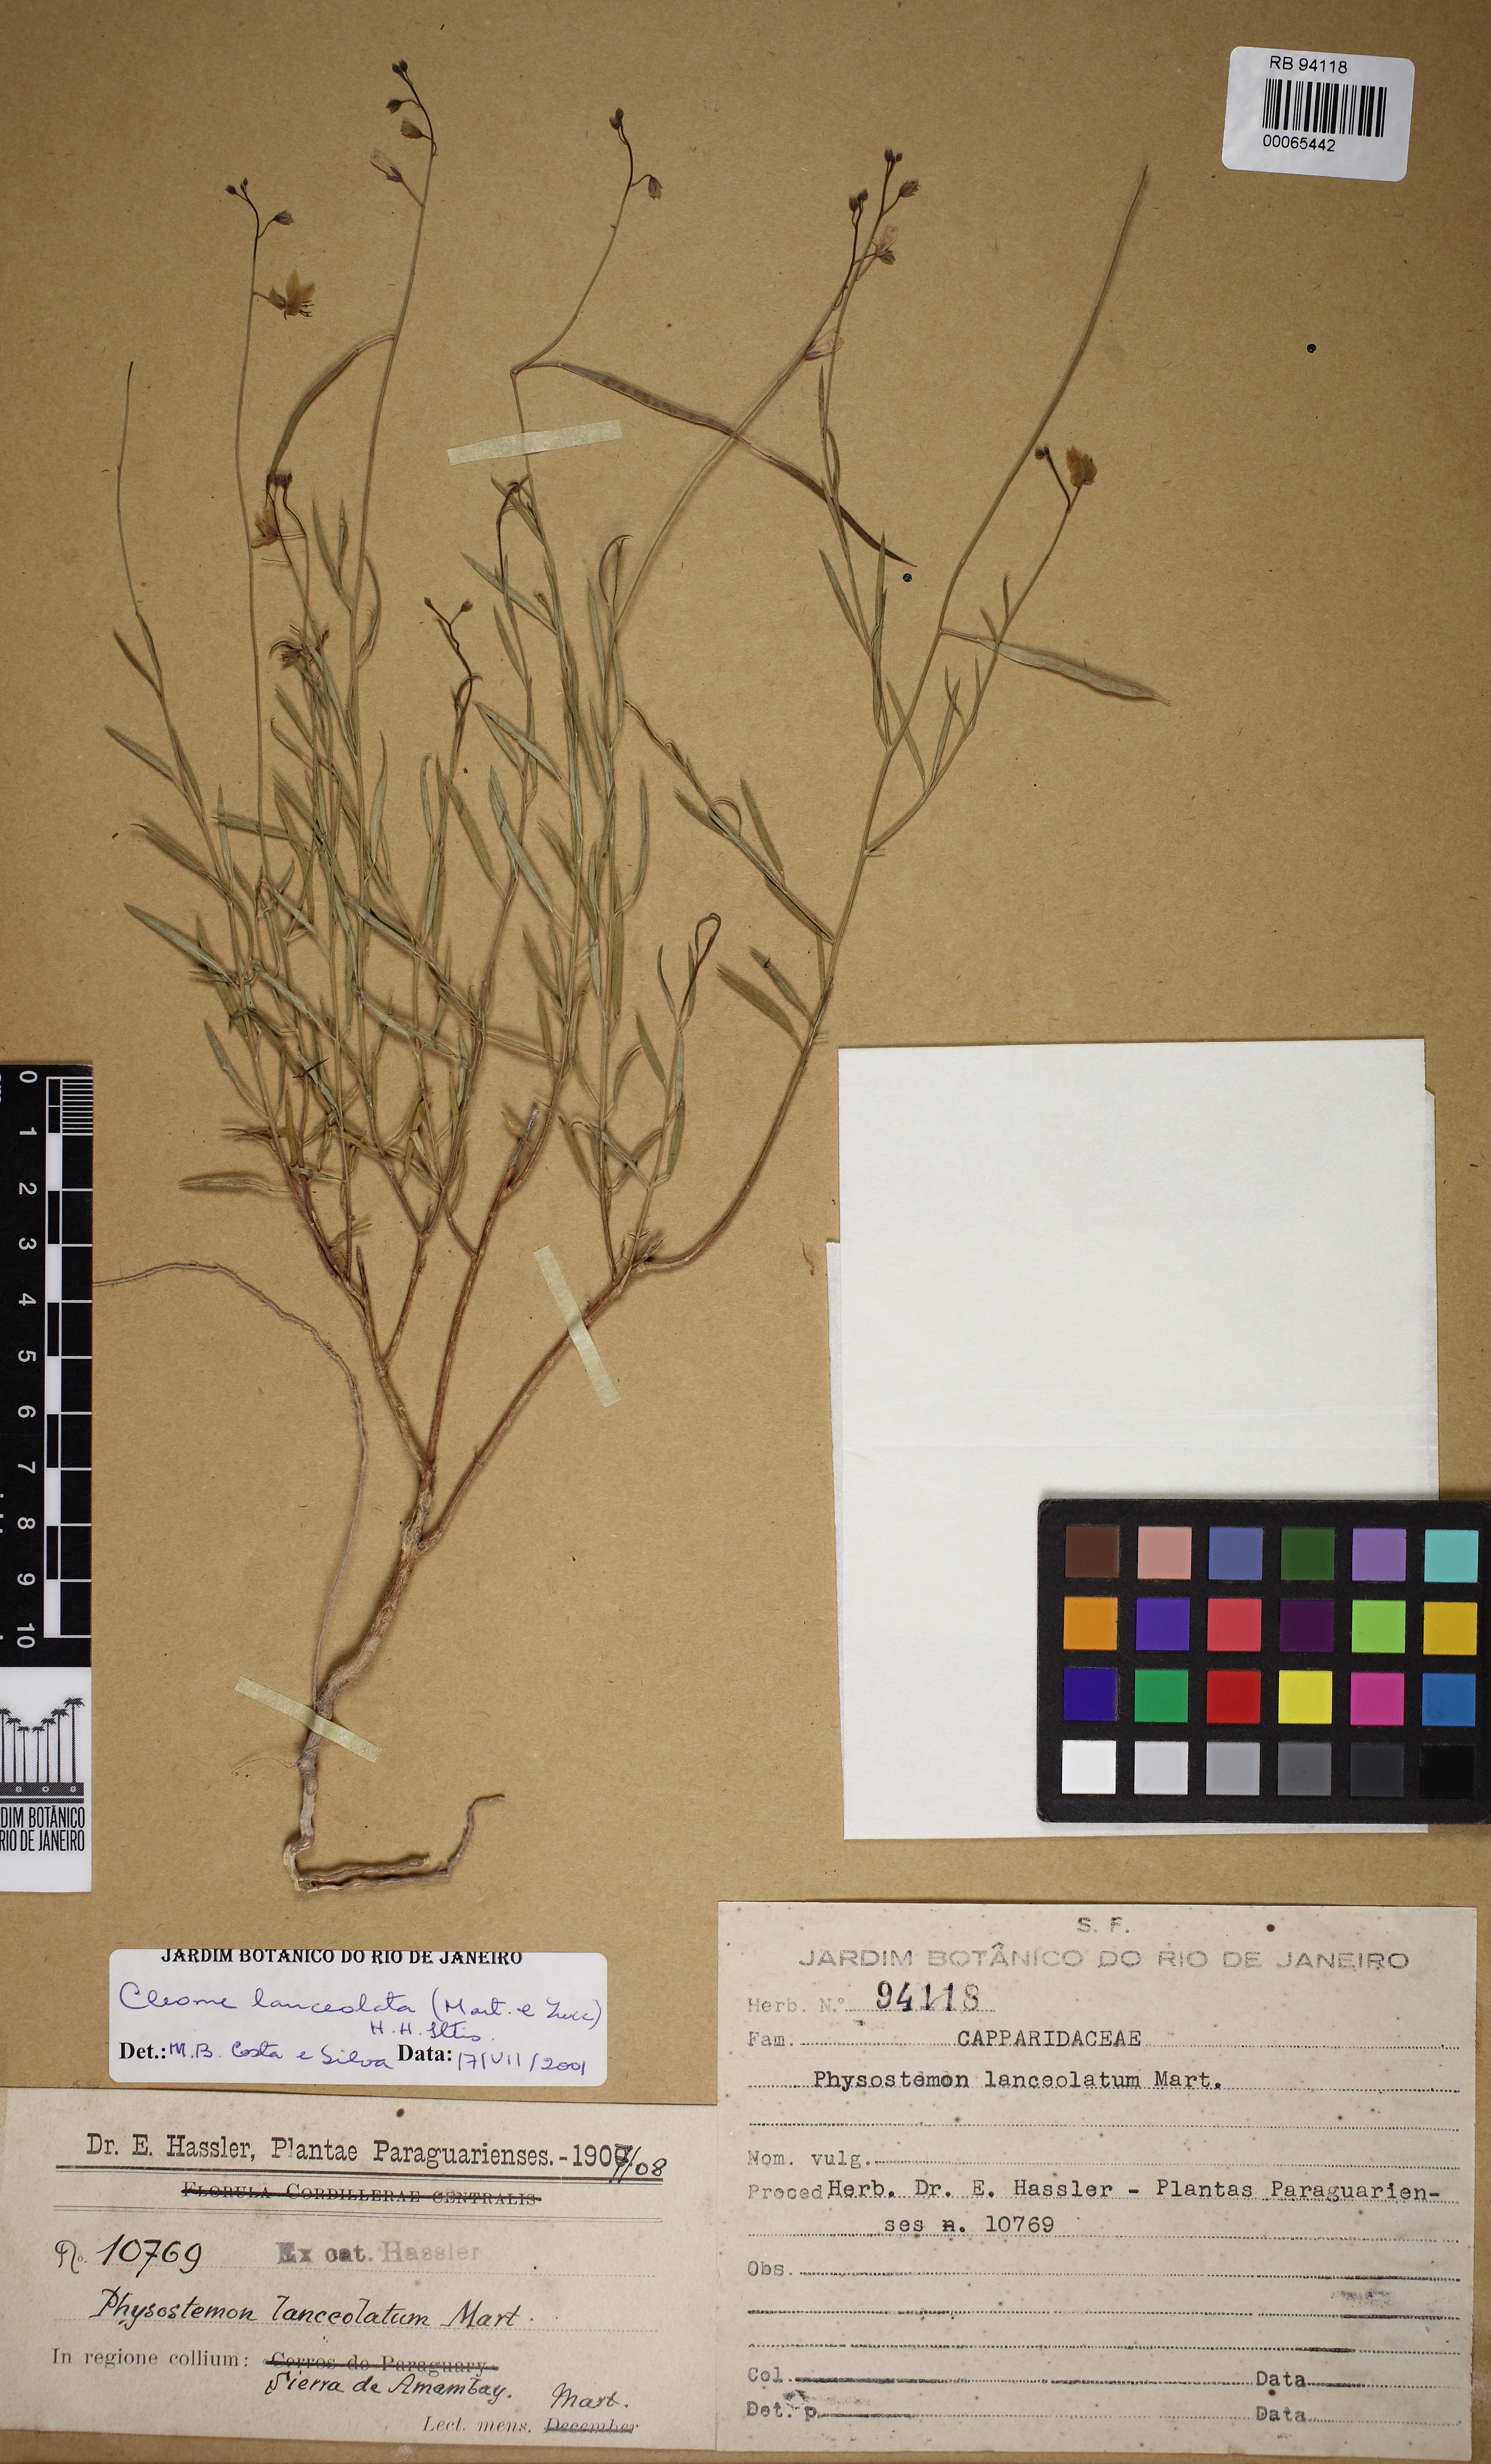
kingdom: Plantae
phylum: Tracheophyta
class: Magnoliopsida
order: Brassicales
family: Cleomaceae
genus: Physostemon
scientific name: Physostemon lanceolatus
